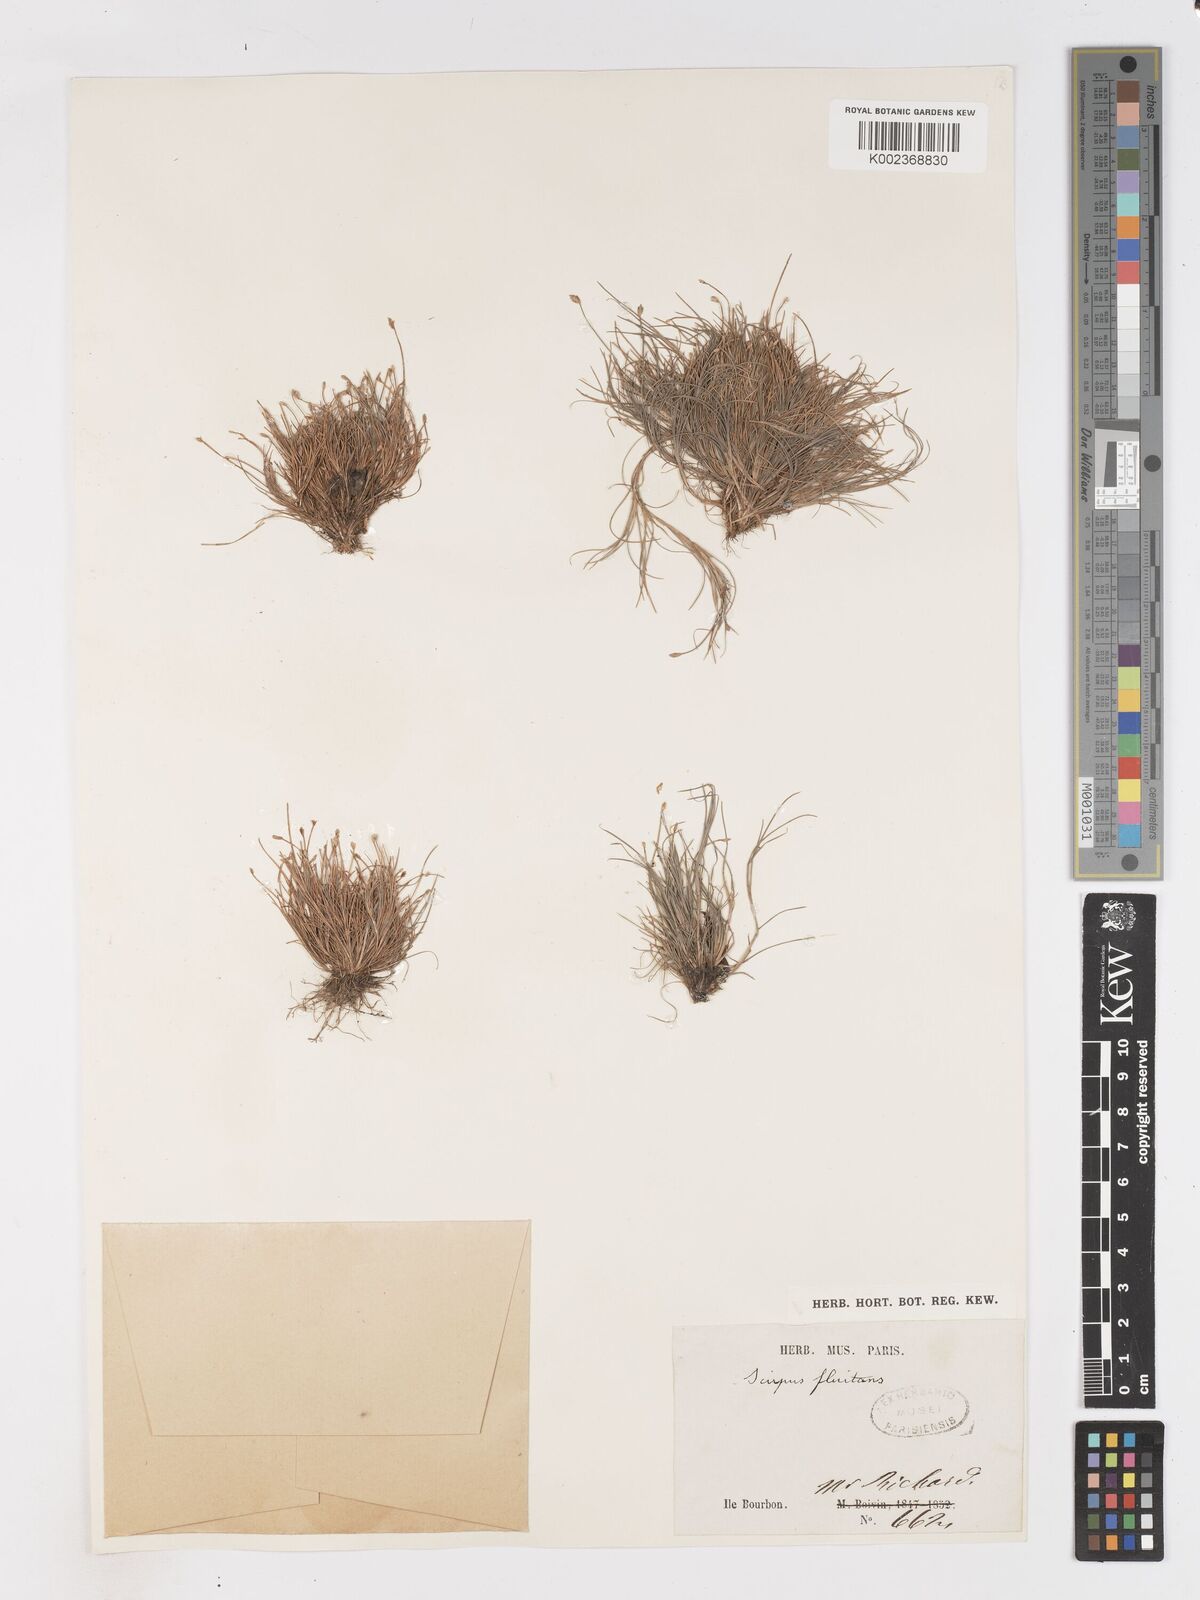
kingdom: Plantae
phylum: Tracheophyta
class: Liliopsida
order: Poales
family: Cyperaceae
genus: Isolepis
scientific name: Isolepis fluitans
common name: Floating club-rush
